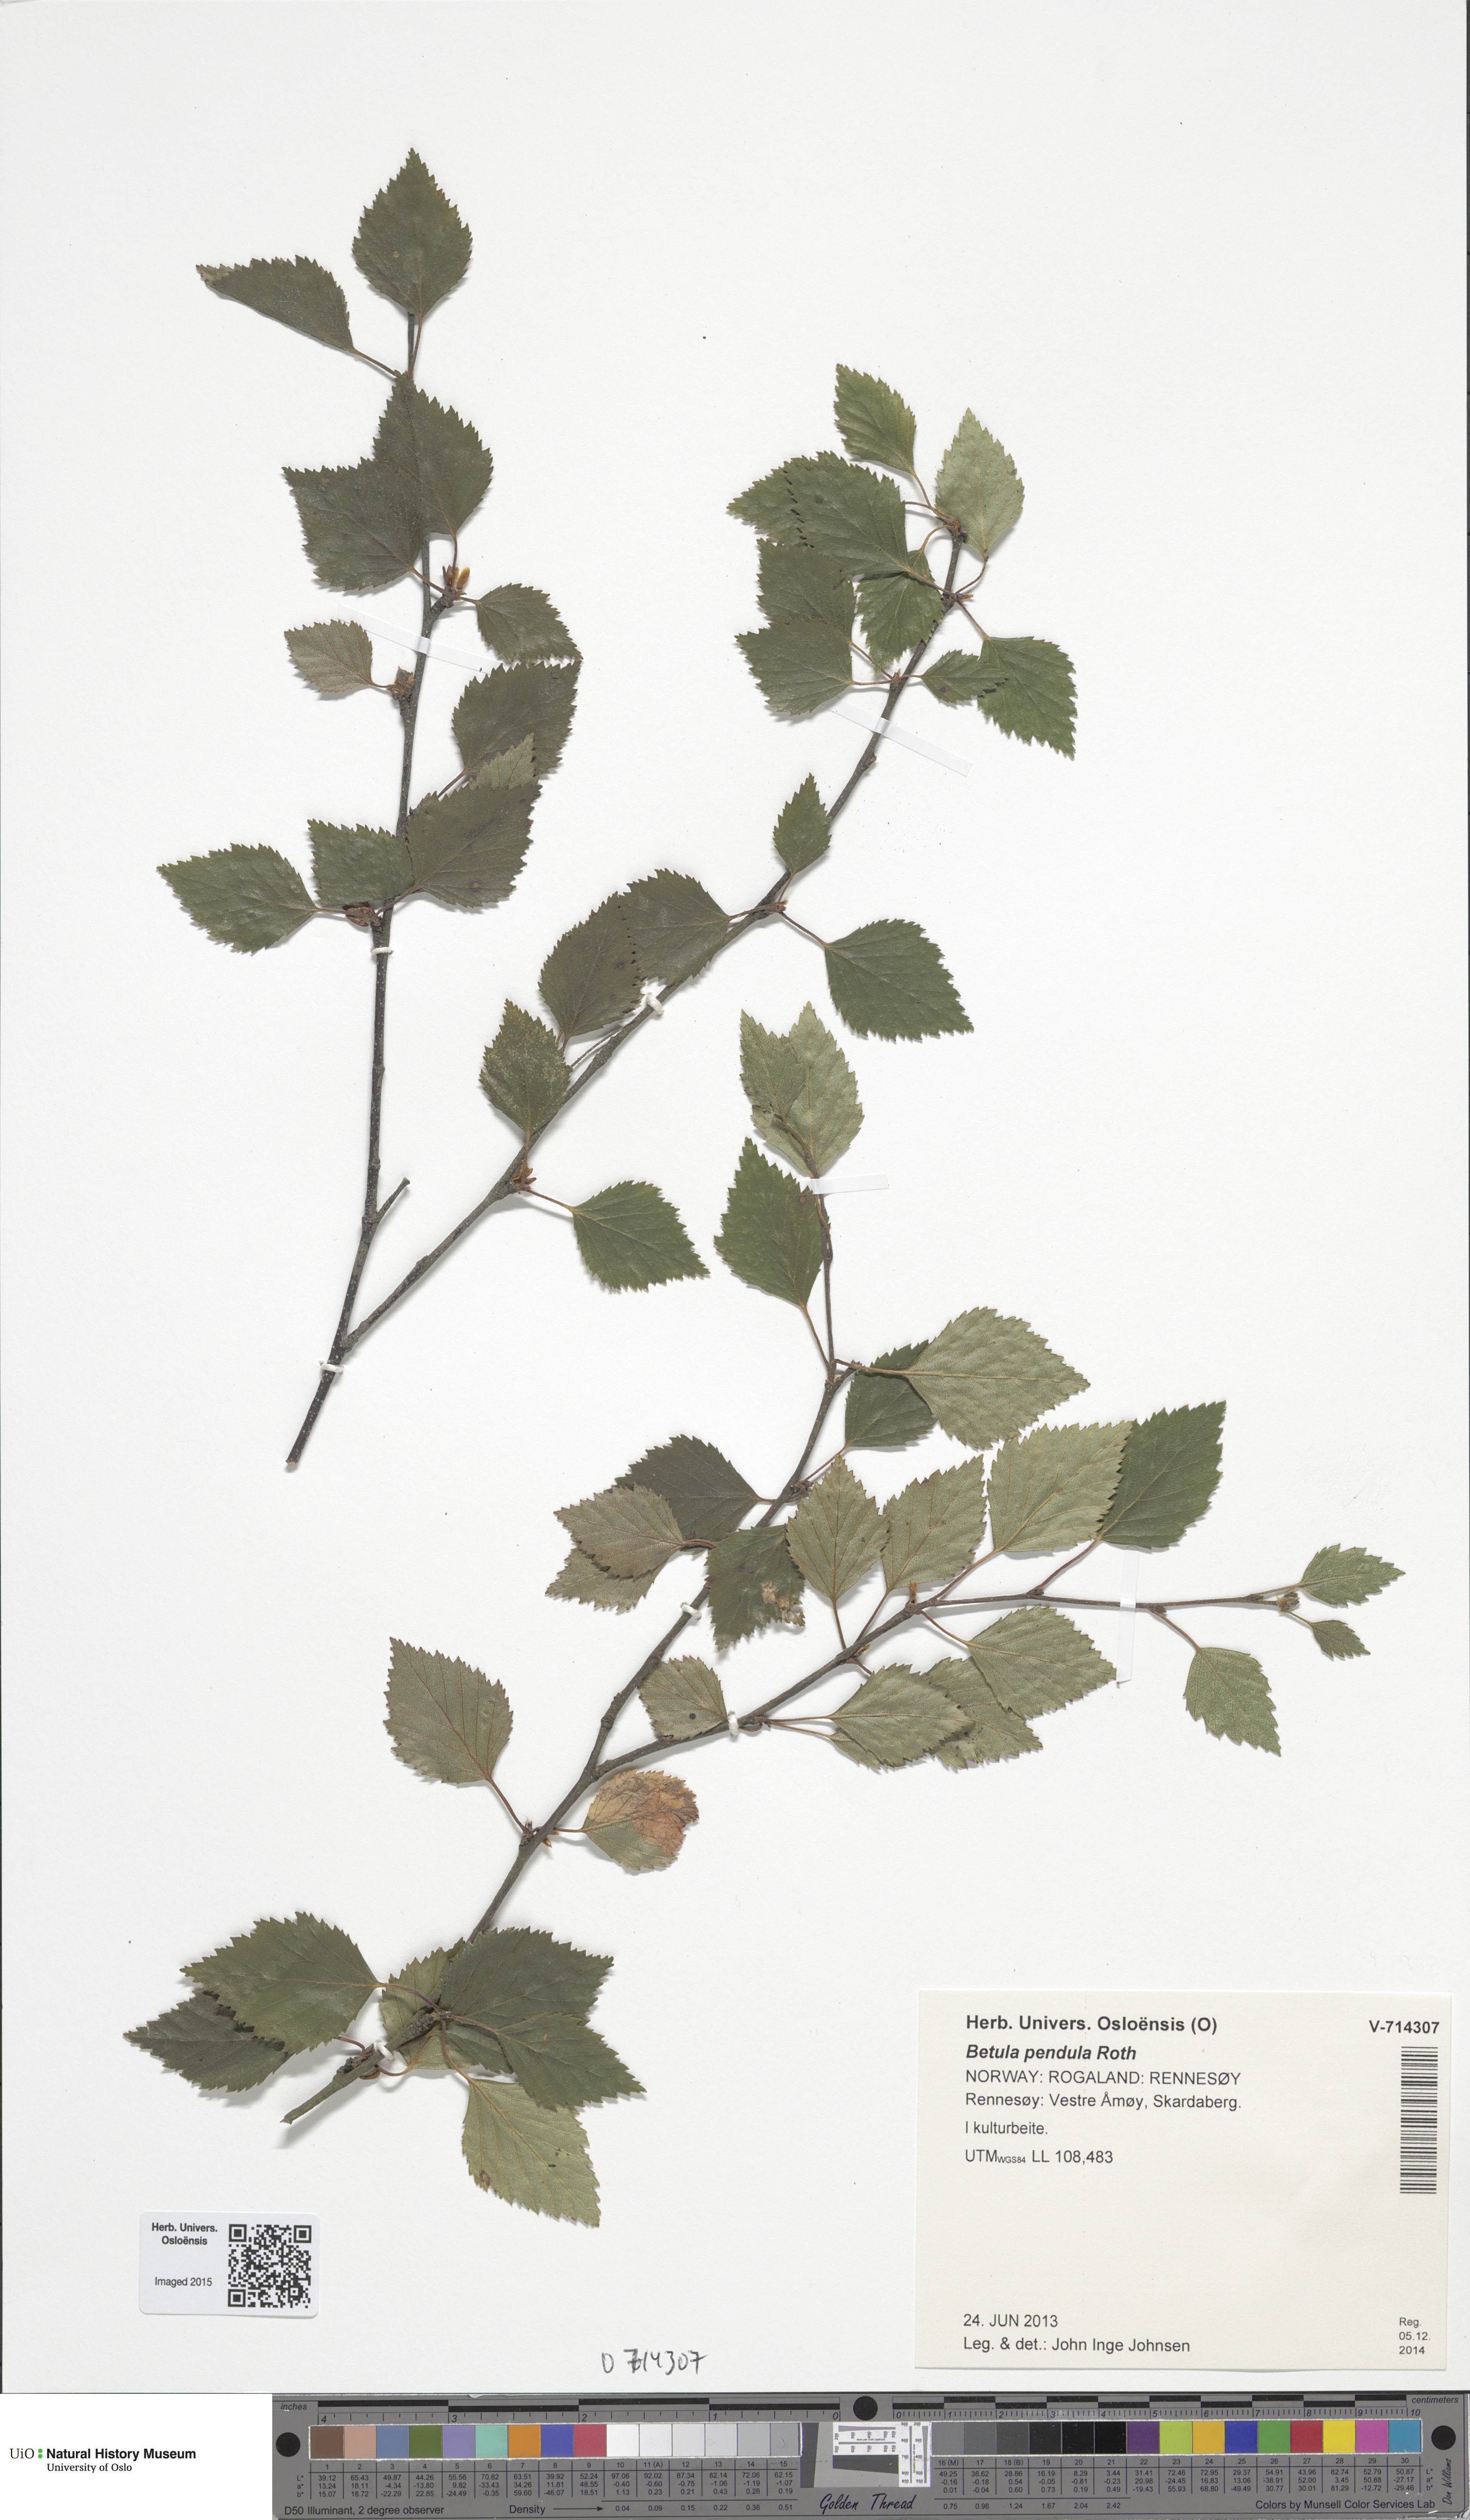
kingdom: Plantae
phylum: Tracheophyta
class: Magnoliopsida
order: Fagales
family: Betulaceae
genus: Betula
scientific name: Betula
